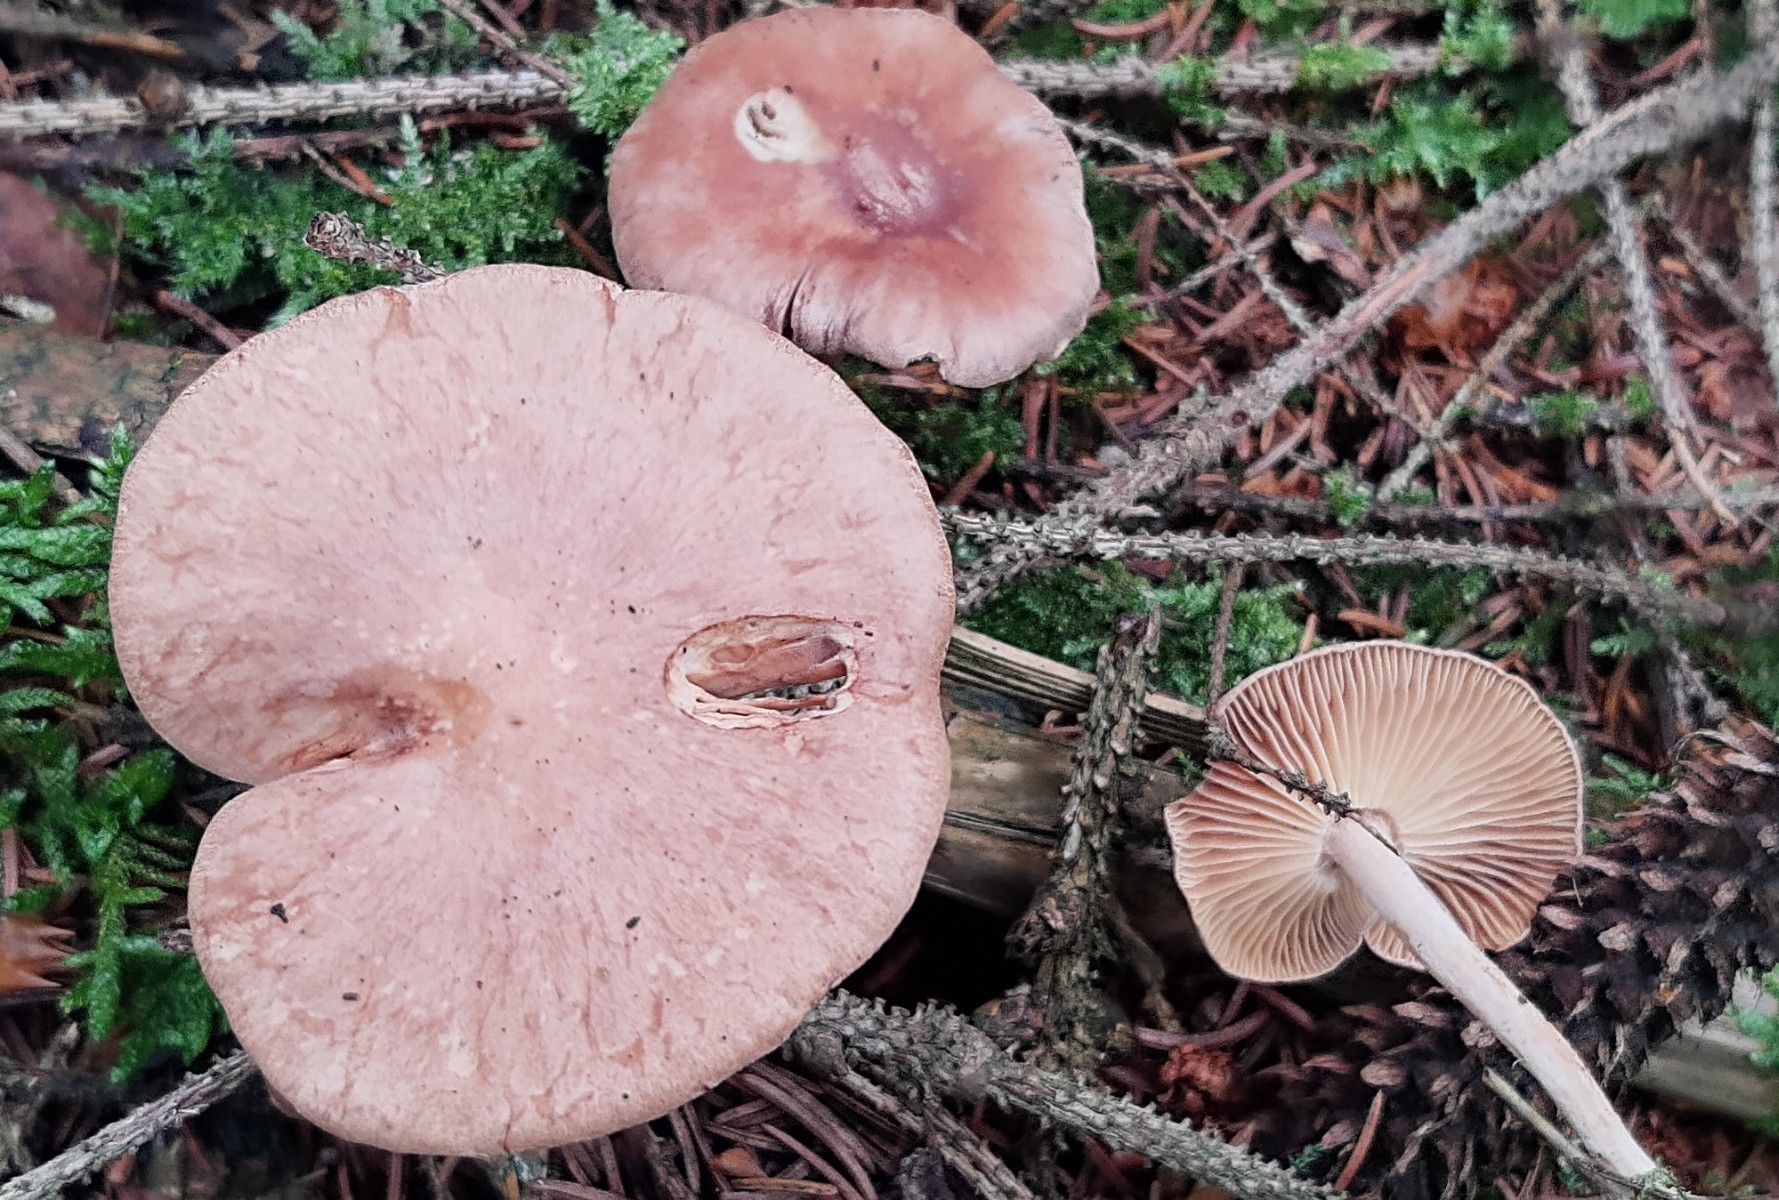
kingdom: Fungi
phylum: Basidiomycota
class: Agaricomycetes
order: Agaricales
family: Omphalotaceae
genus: Collybiopsis
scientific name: Collybiopsis peronata
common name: bestøvlet fladhat
